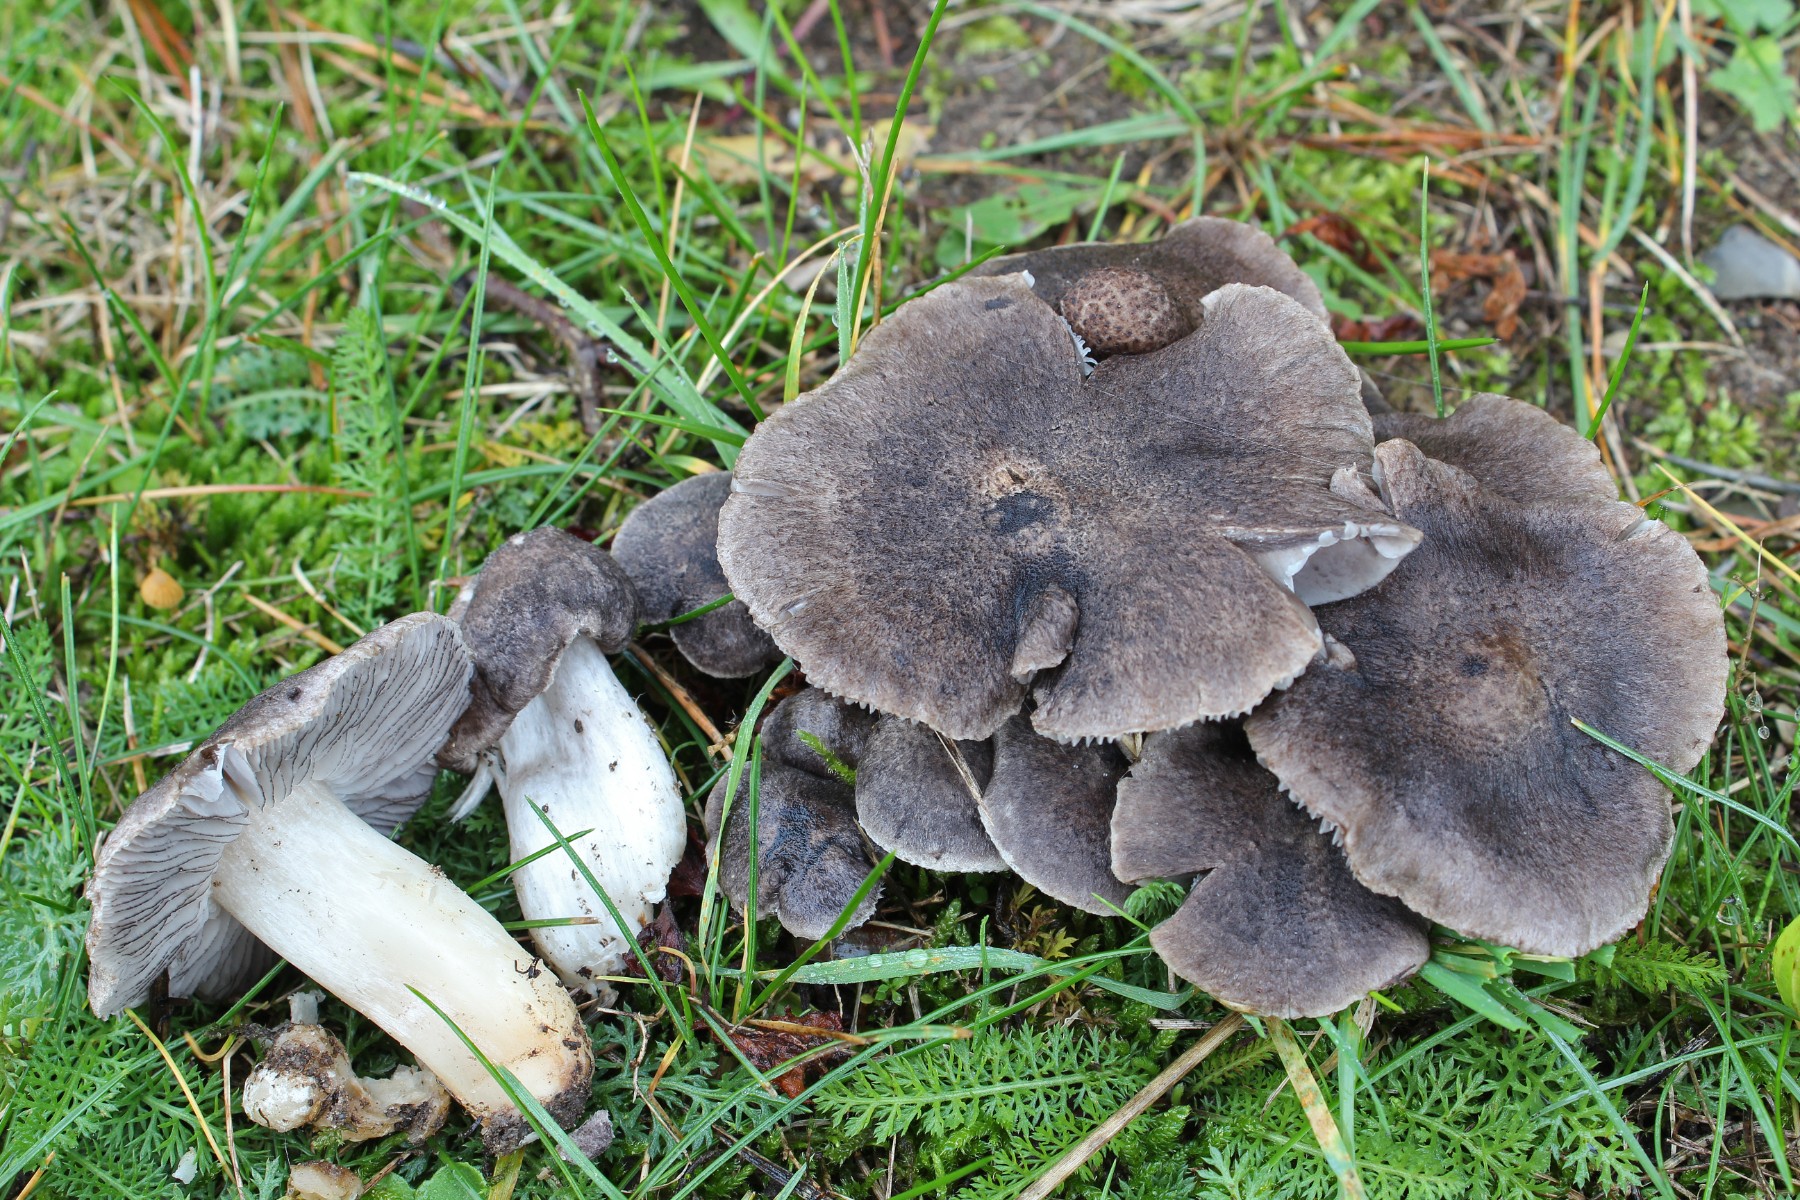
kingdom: Fungi
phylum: Basidiomycota
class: Agaricomycetes
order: Agaricales
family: Tricholomataceae
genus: Tricholoma
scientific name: Tricholoma terreum
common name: jordfarvet ridderhat
